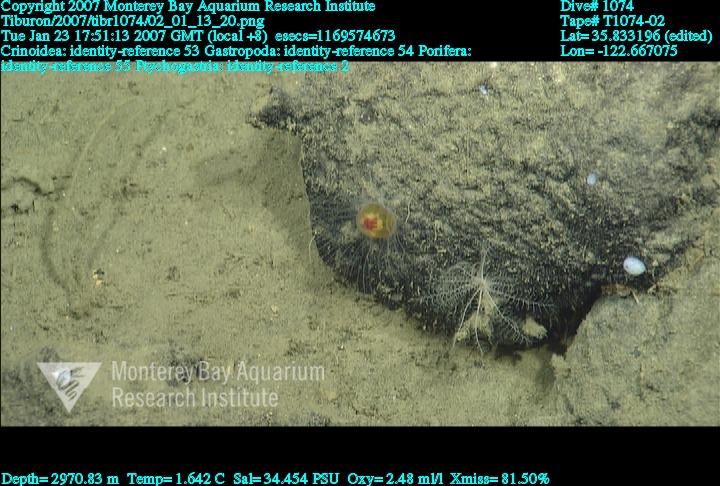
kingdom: Animalia
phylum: Porifera
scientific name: Porifera
